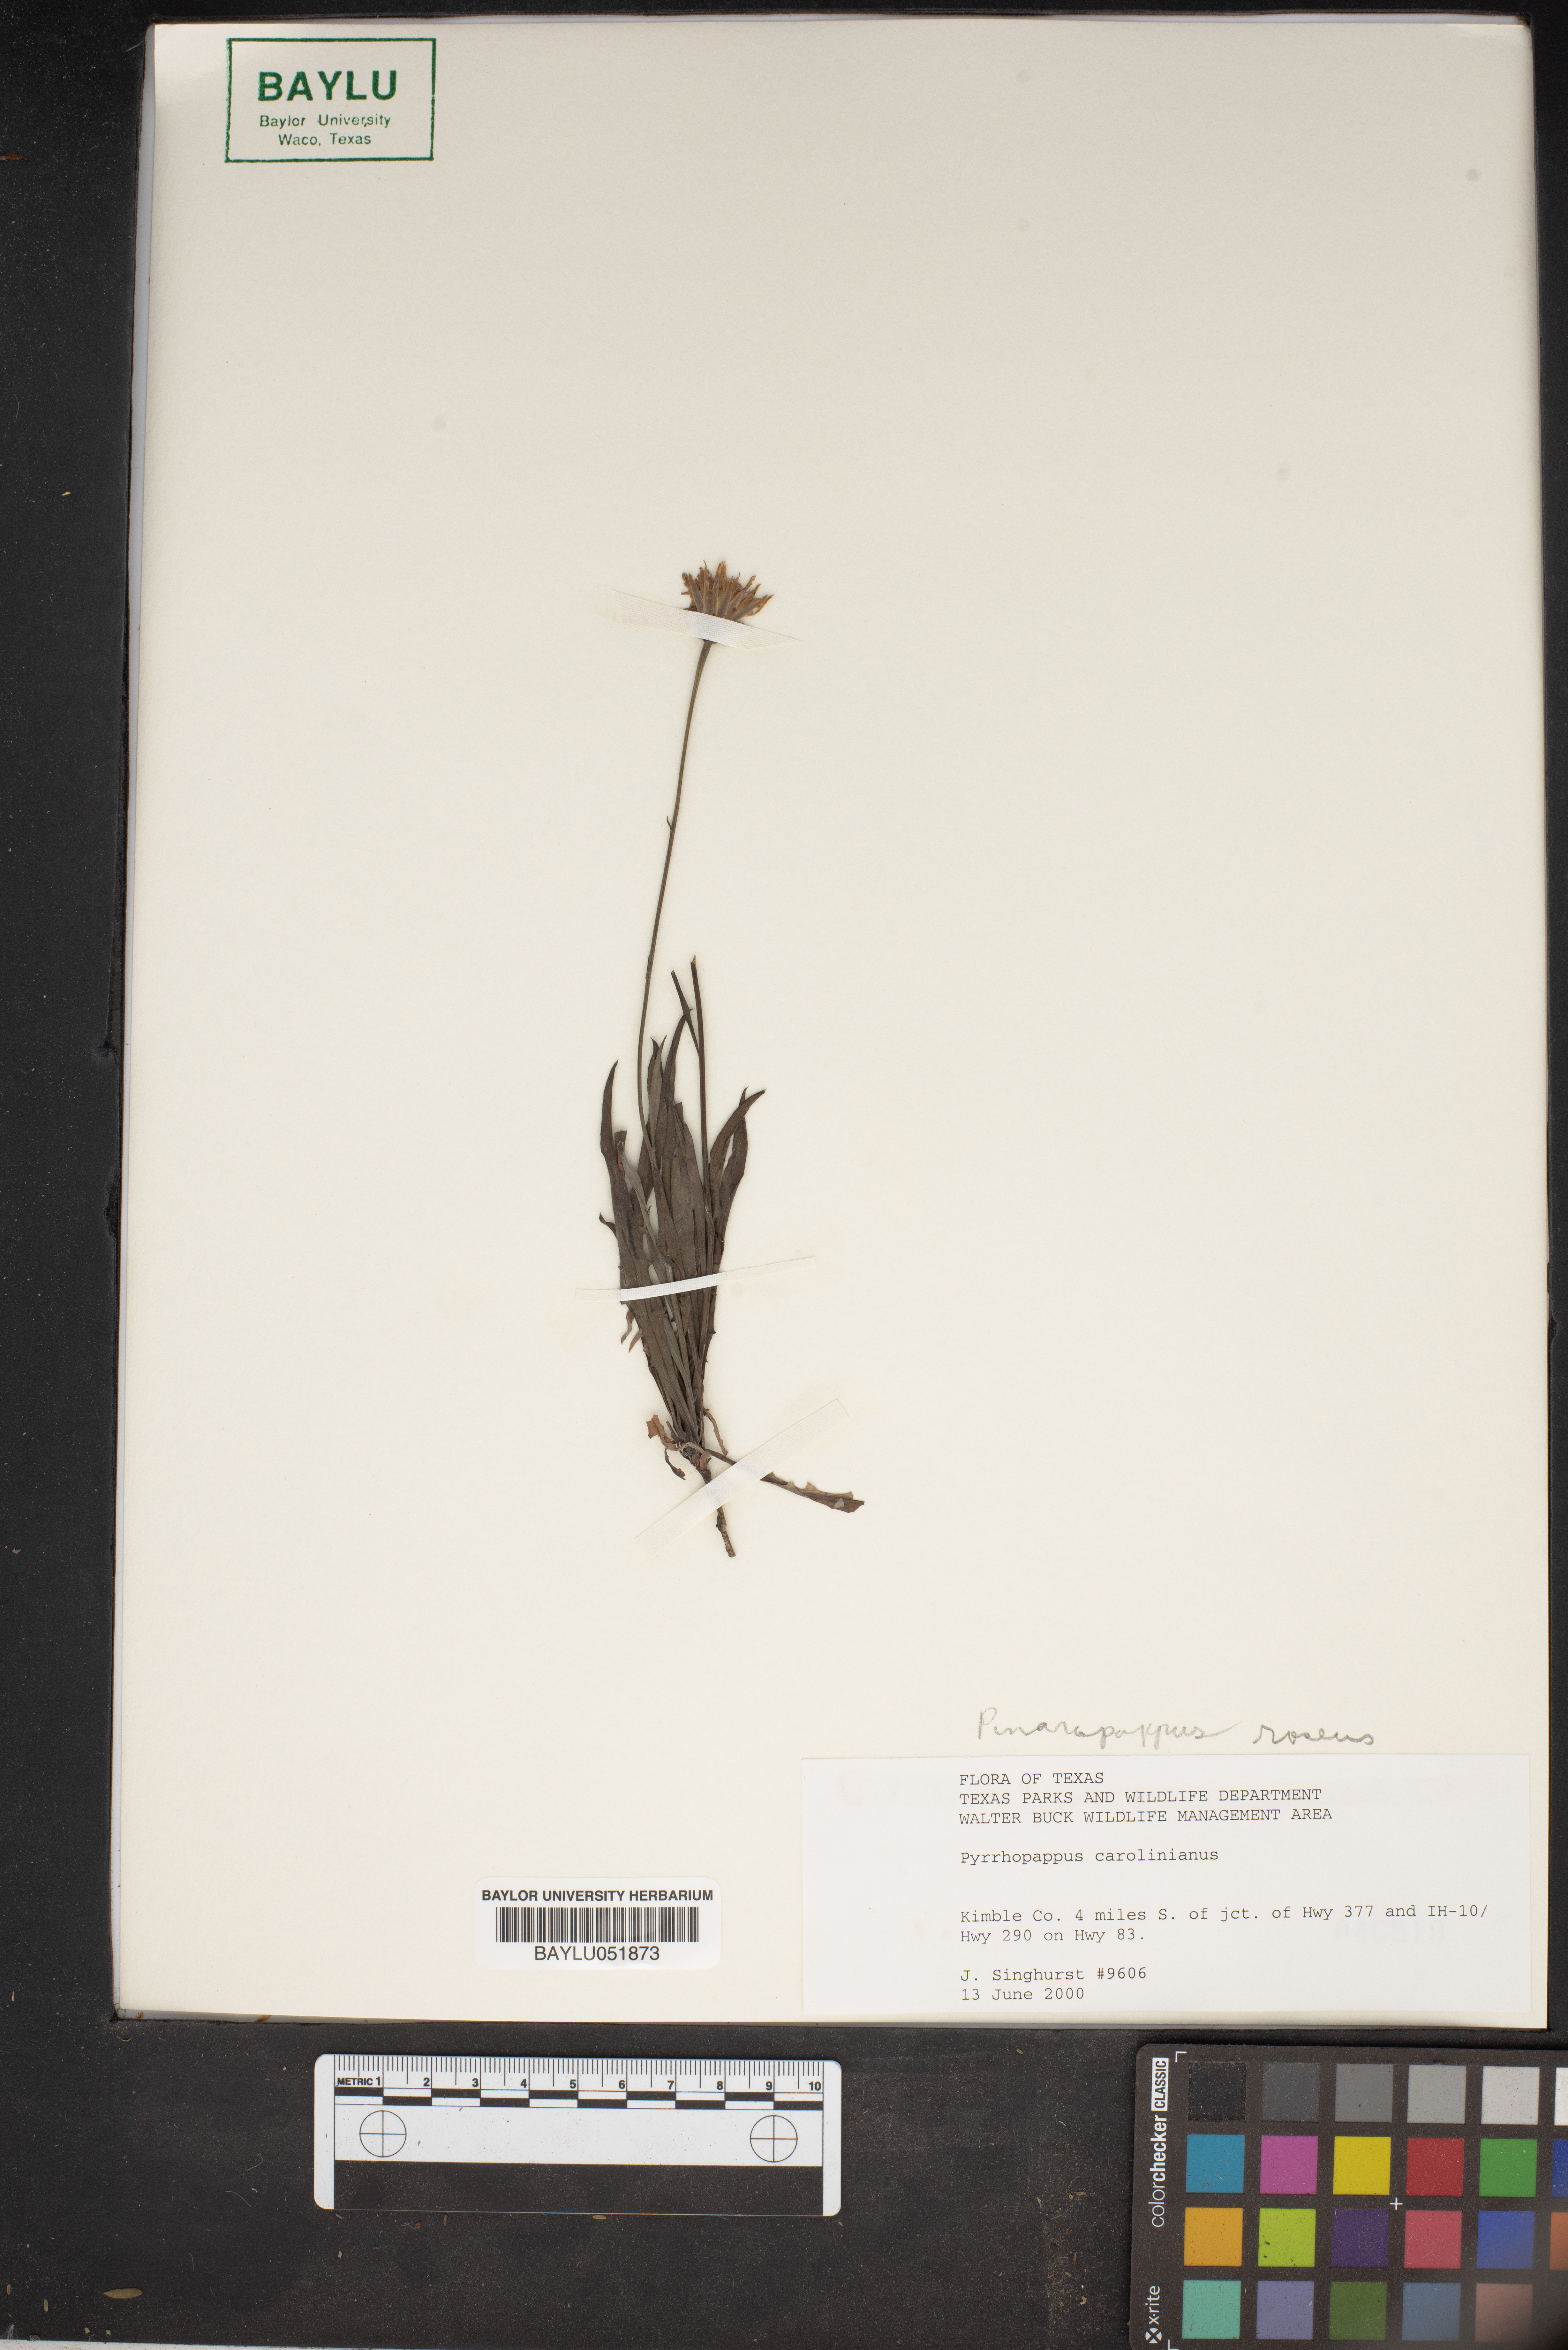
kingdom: Plantae
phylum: Tracheophyta
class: Magnoliopsida
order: Asterales
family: Asteraceae
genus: Pyrrhopappus
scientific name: Pyrrhopappus carolinianus
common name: Carolina desert-chicory
